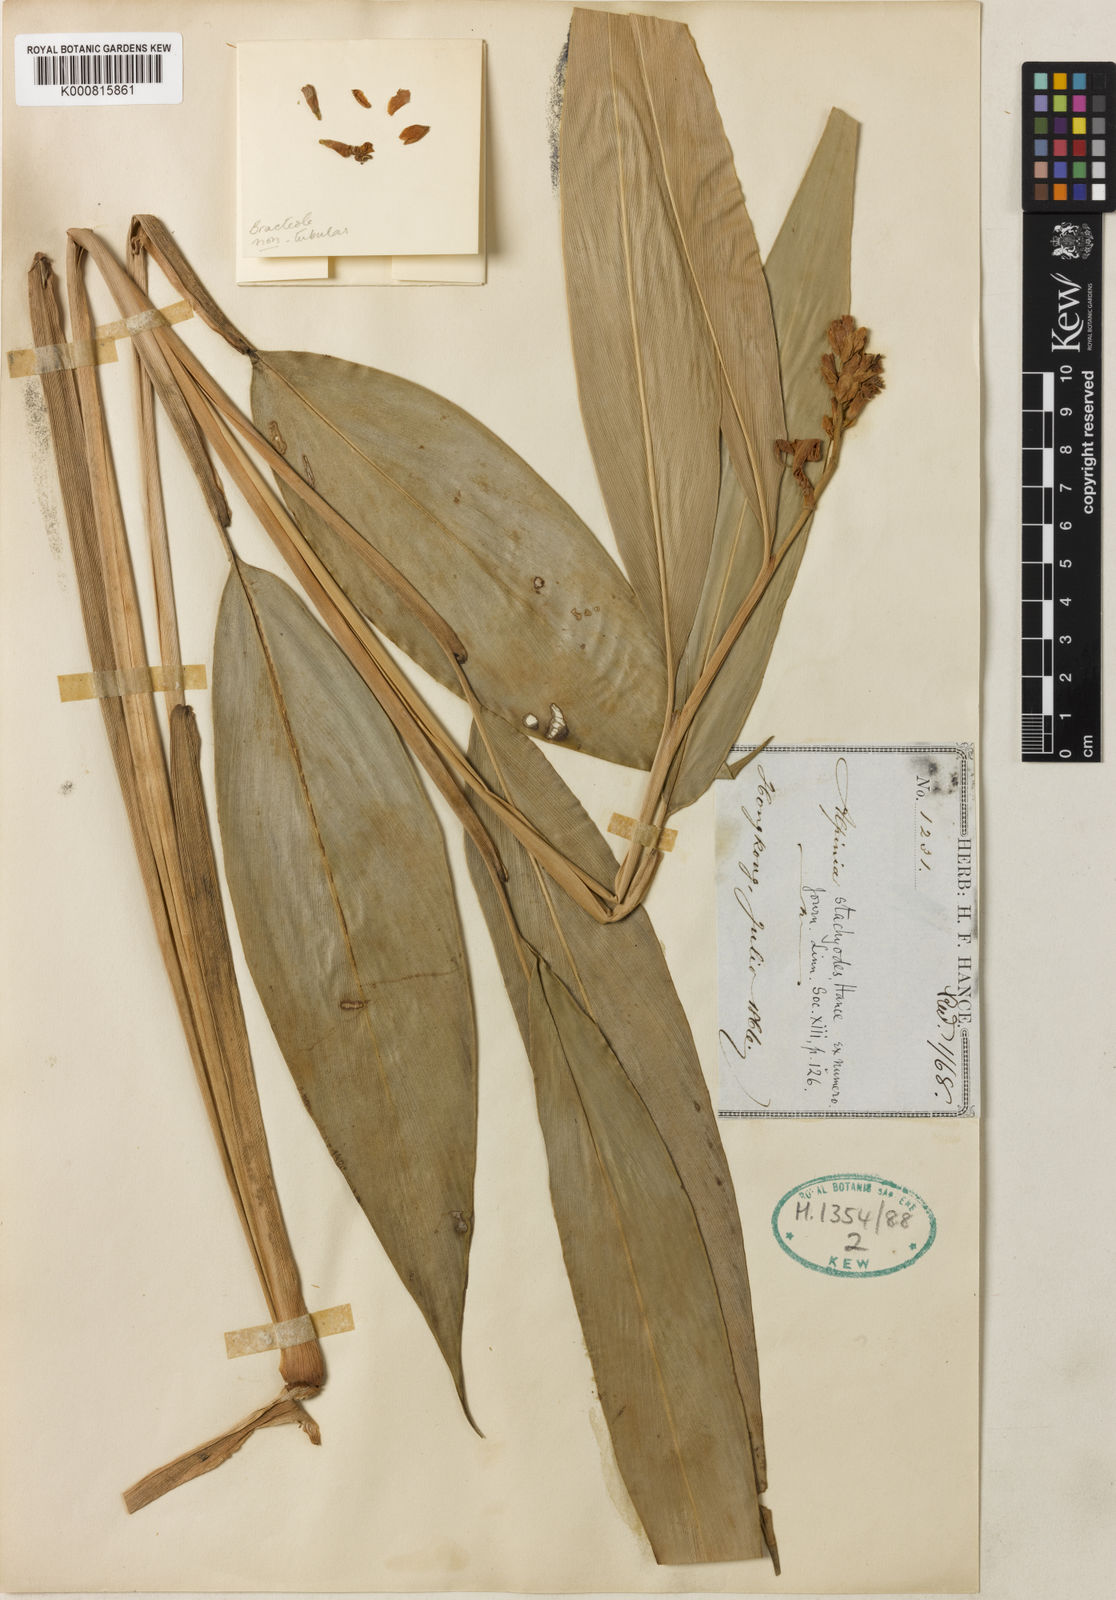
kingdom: Plantae
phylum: Tracheophyta
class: Liliopsida
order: Zingiberales
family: Zingiberaceae
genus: Alpinia
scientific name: Alpinia stachyodes
